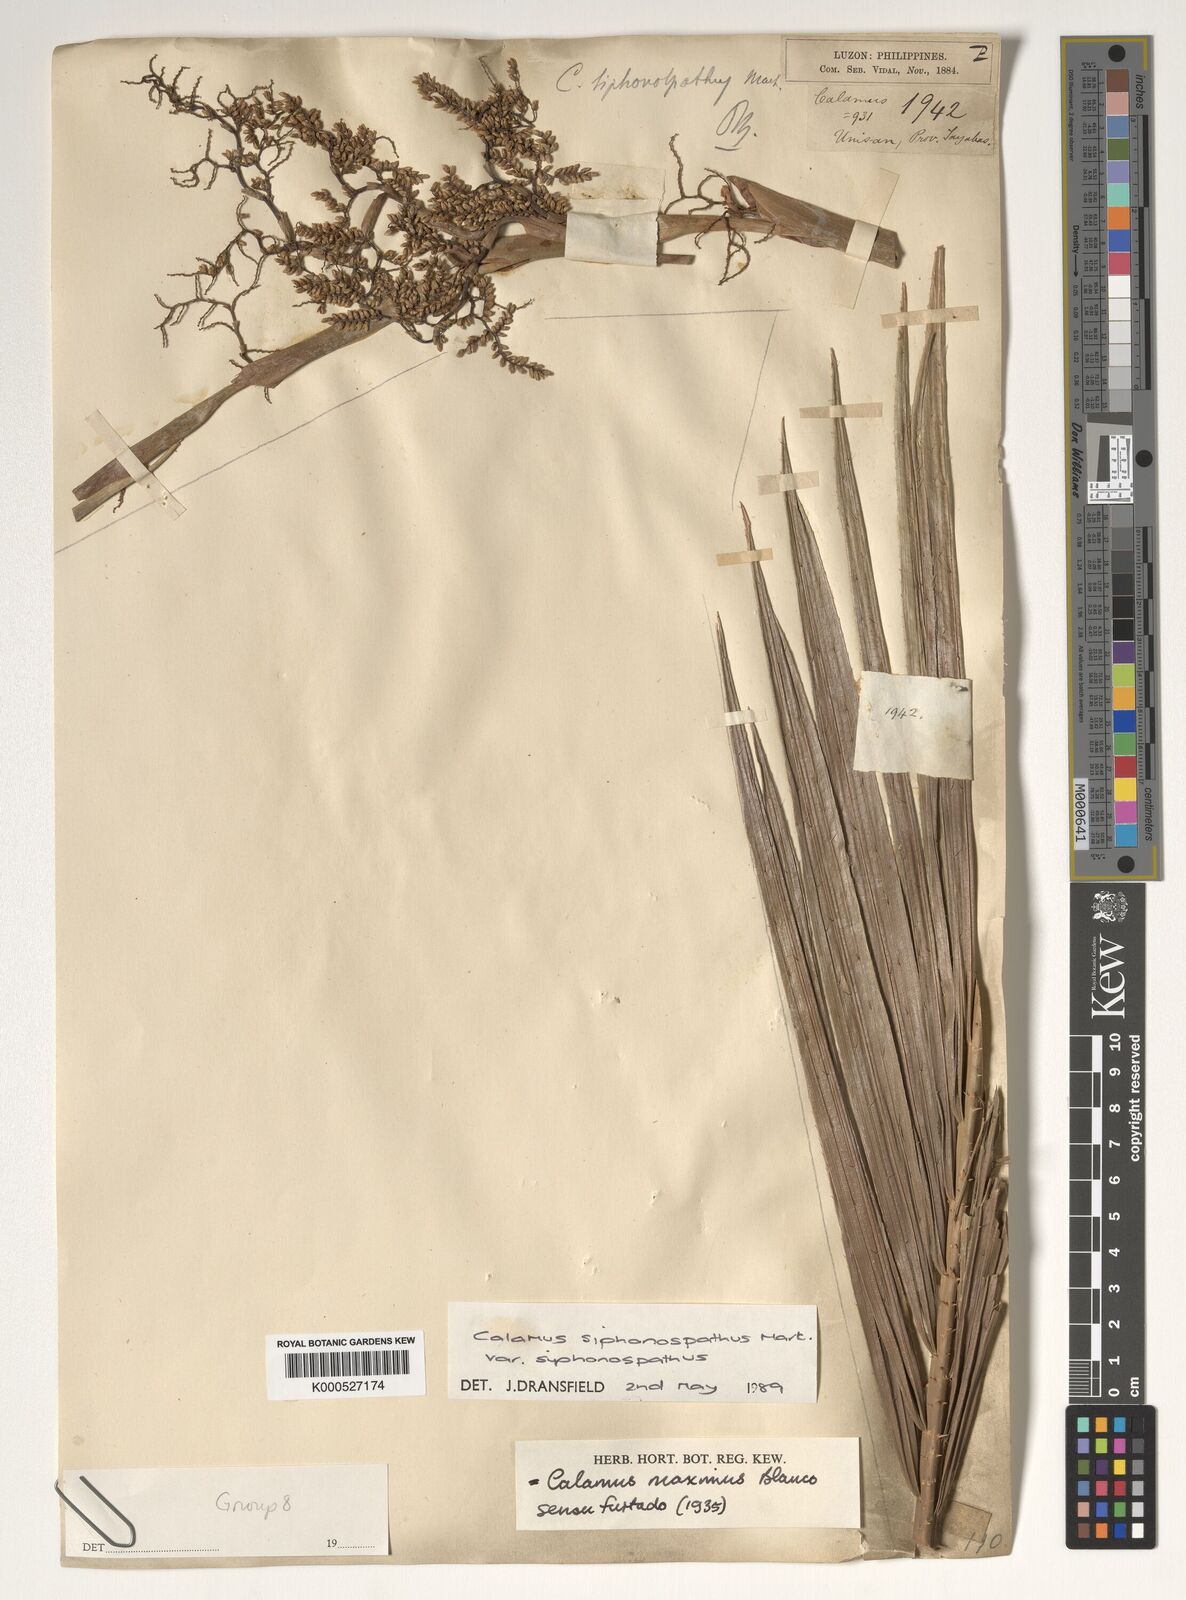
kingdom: Plantae
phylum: Tracheophyta
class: Liliopsida
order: Arecales
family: Arecaceae
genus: Calamus
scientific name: Calamus siphonospathus
